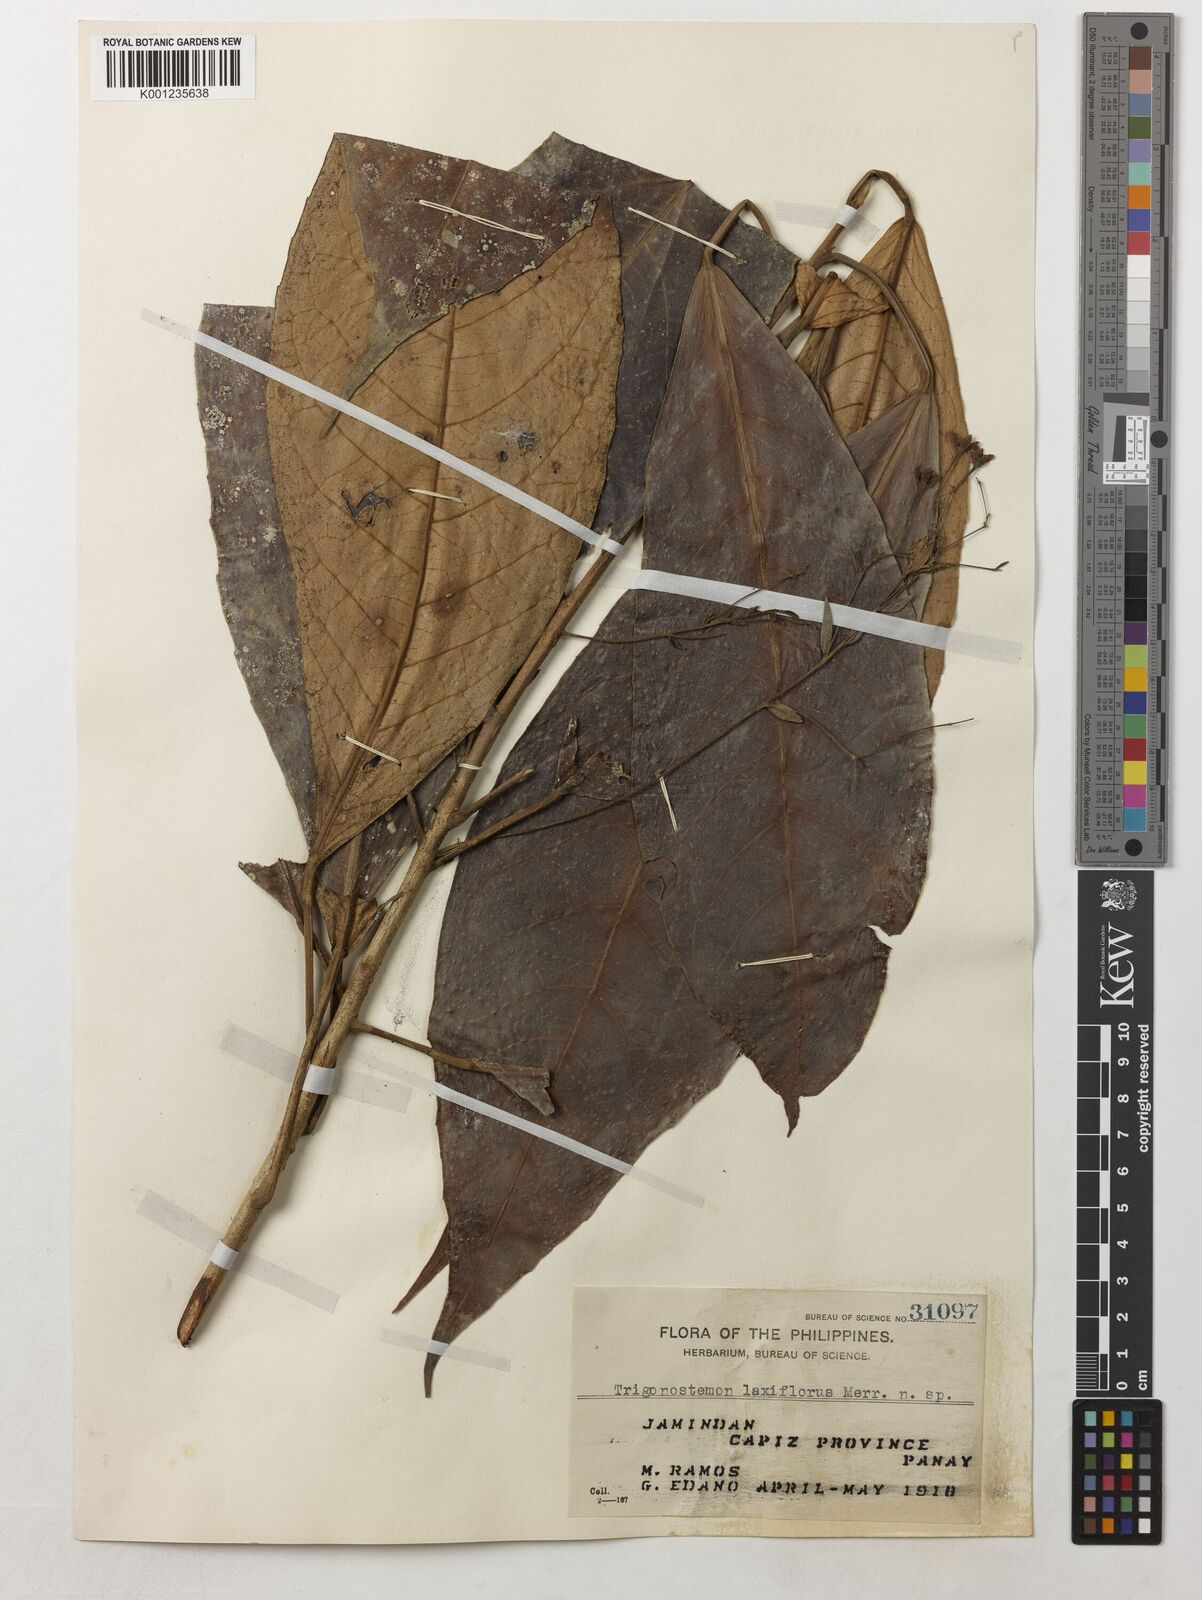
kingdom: Plantae
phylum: Tracheophyta
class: Magnoliopsida
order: Malpighiales
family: Euphorbiaceae
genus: Trigonostemon
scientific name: Trigonostemon villosus
